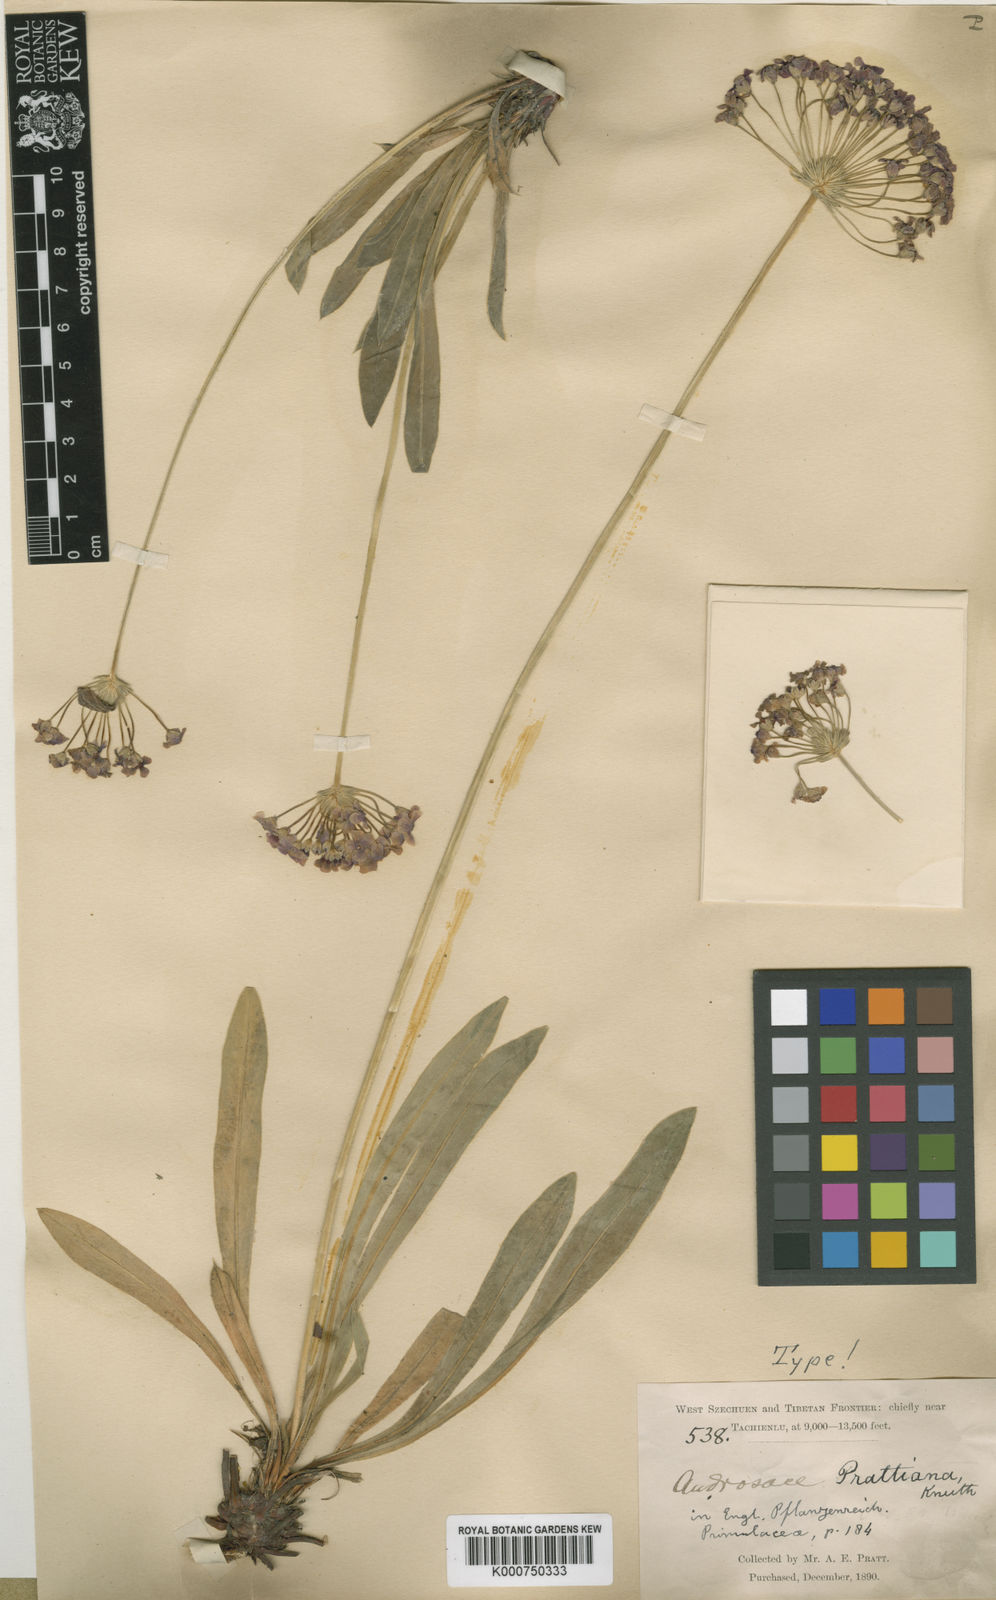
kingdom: Plantae
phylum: Tracheophyta
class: Magnoliopsida
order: Ericales
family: Primulaceae
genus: Androsace
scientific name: Androsace spinulifera
